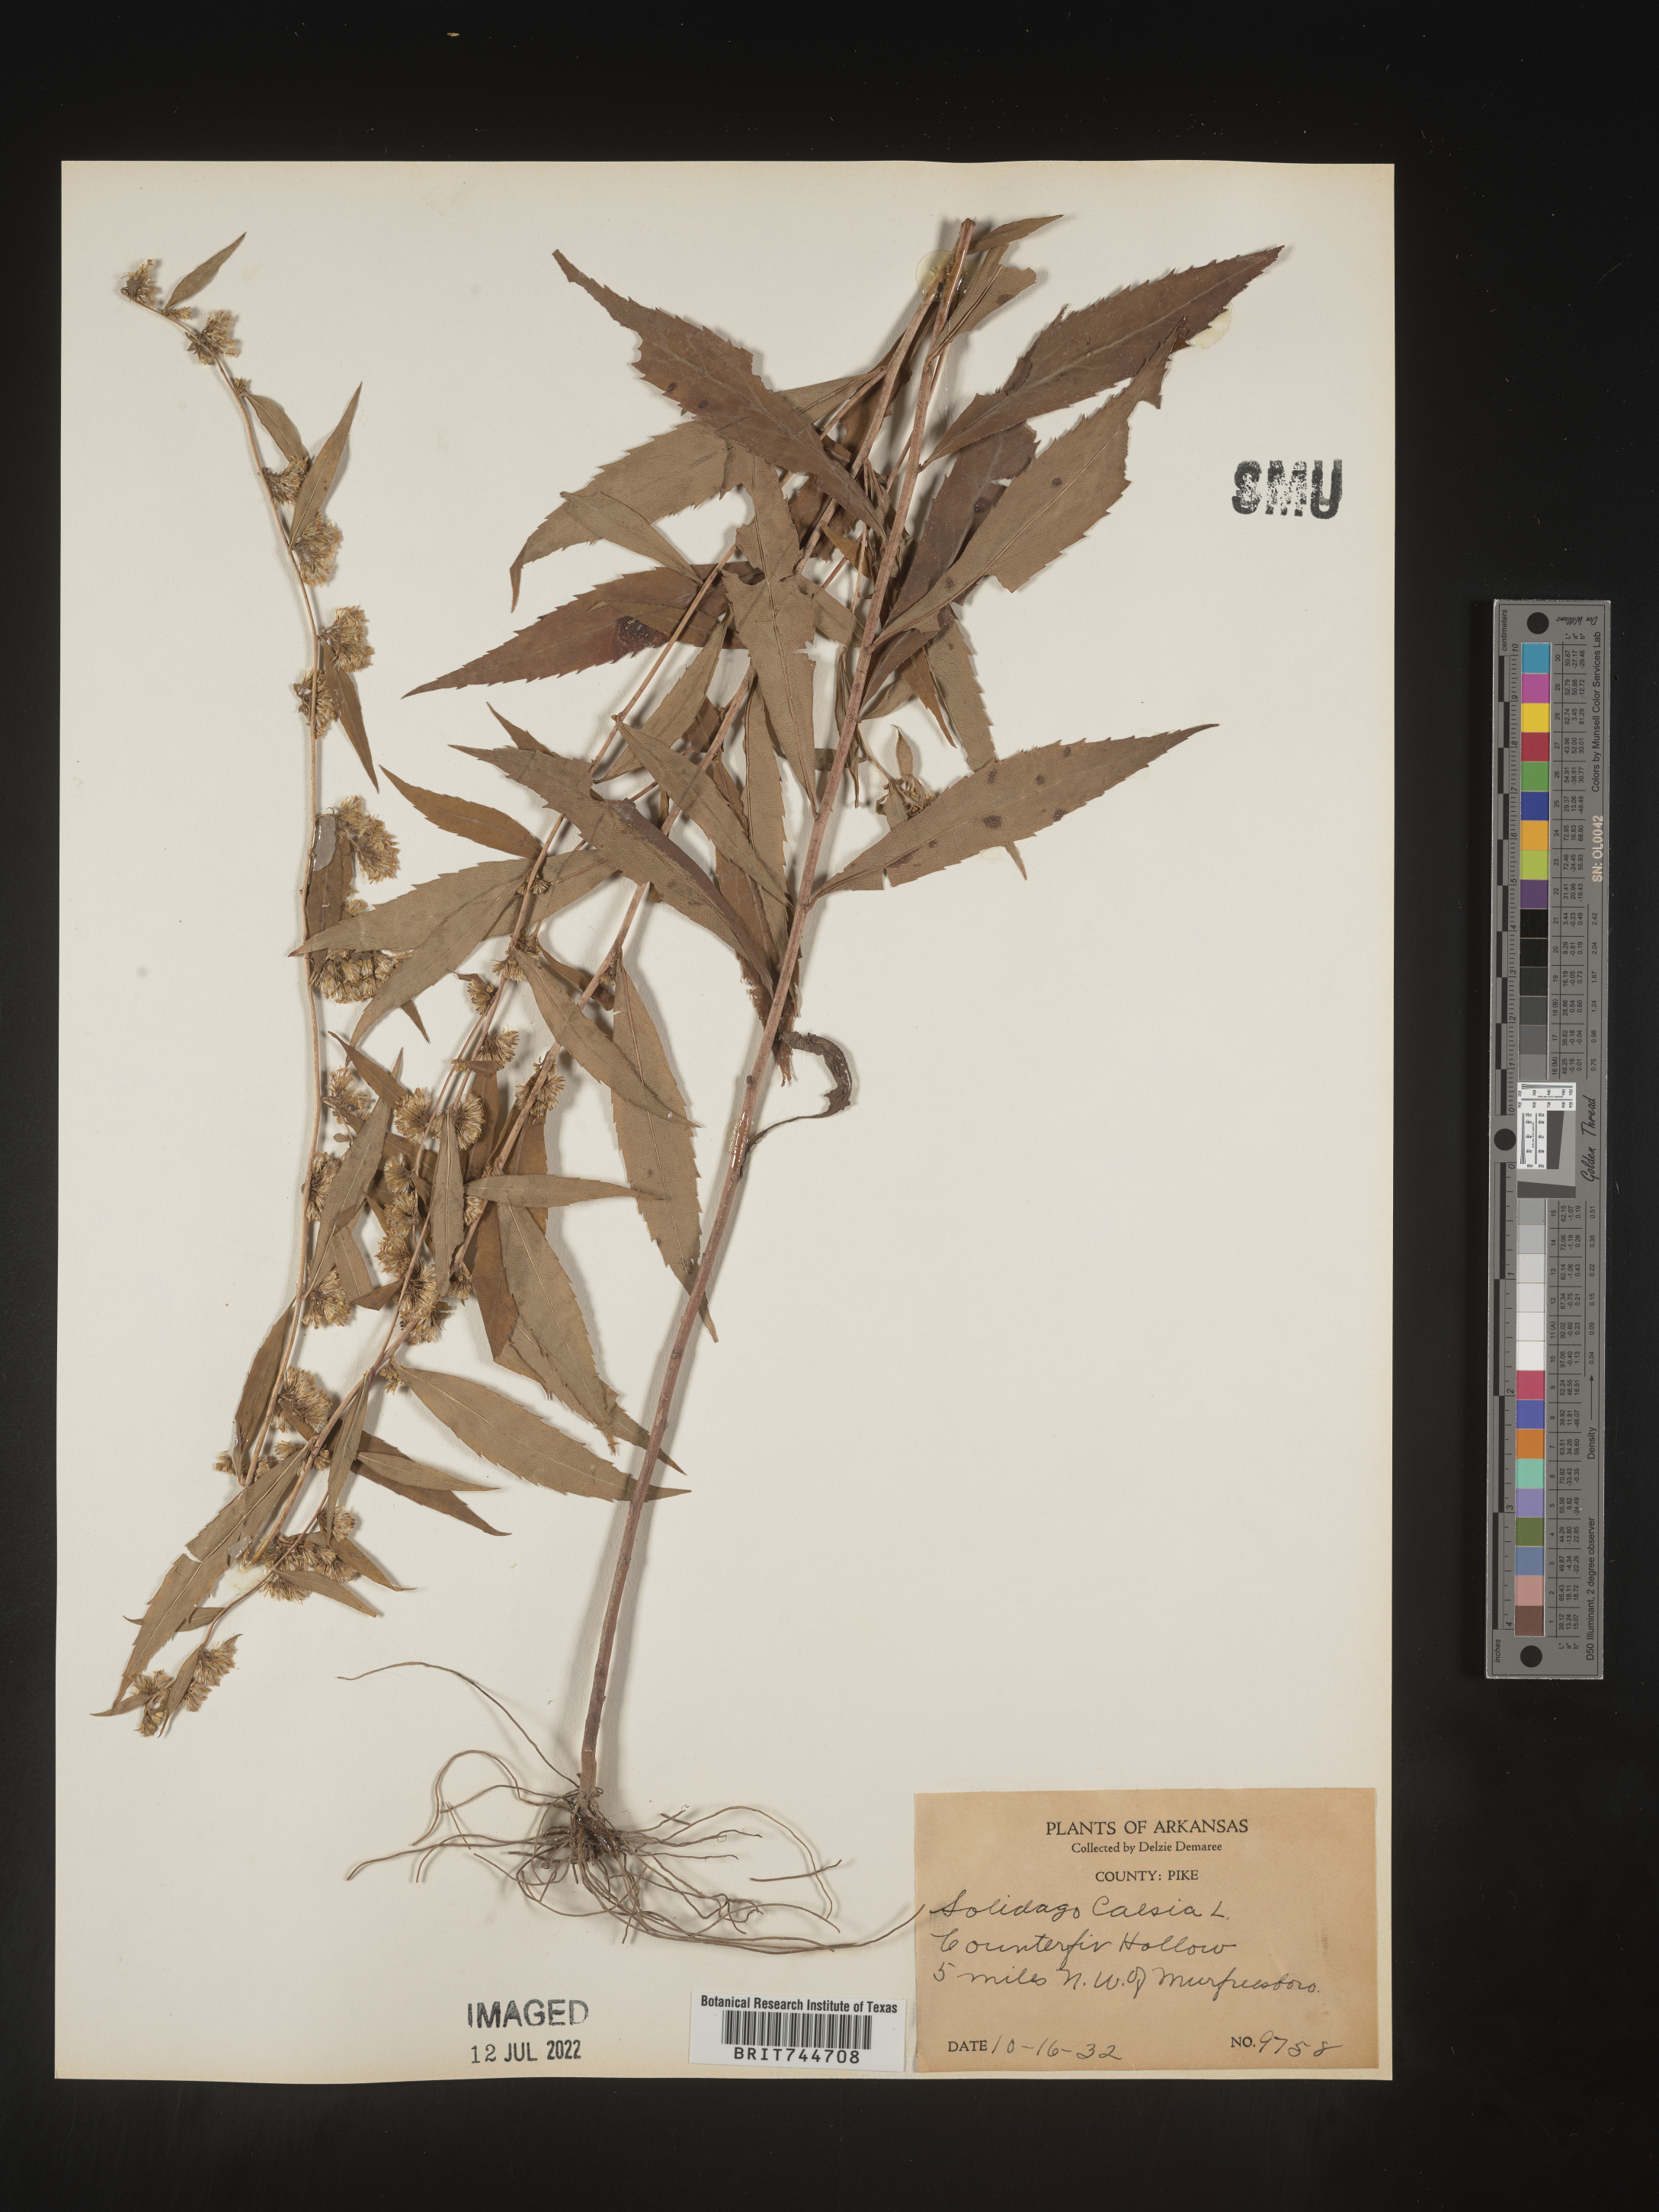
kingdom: Plantae
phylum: Tracheophyta
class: Magnoliopsida
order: Asterales
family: Asteraceae
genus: Solidago
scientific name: Solidago caesia
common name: Woodland goldenrod
